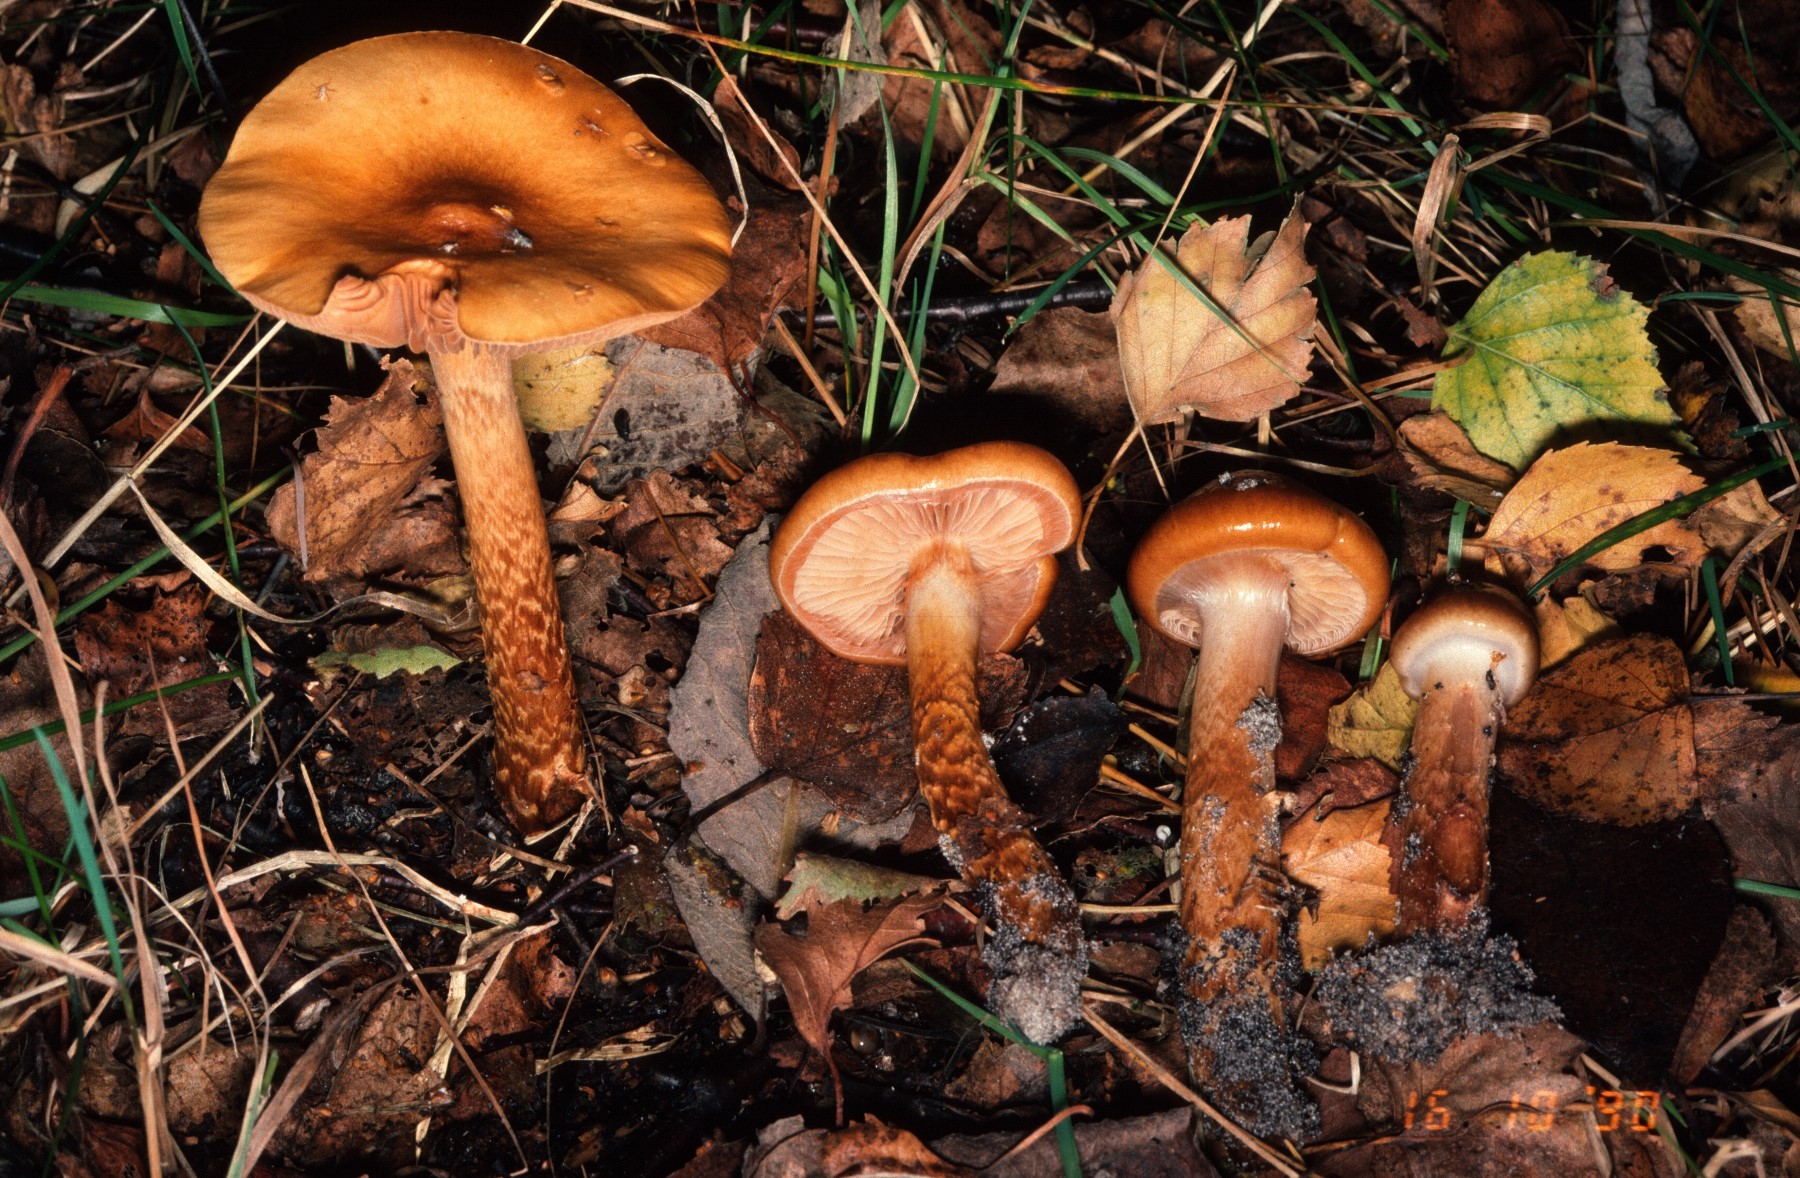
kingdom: Fungi
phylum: Basidiomycota
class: Agaricomycetes
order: Agaricales
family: Cortinariaceae
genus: Cortinarius
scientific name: Cortinarius trivialis
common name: brunslimet slørhat
